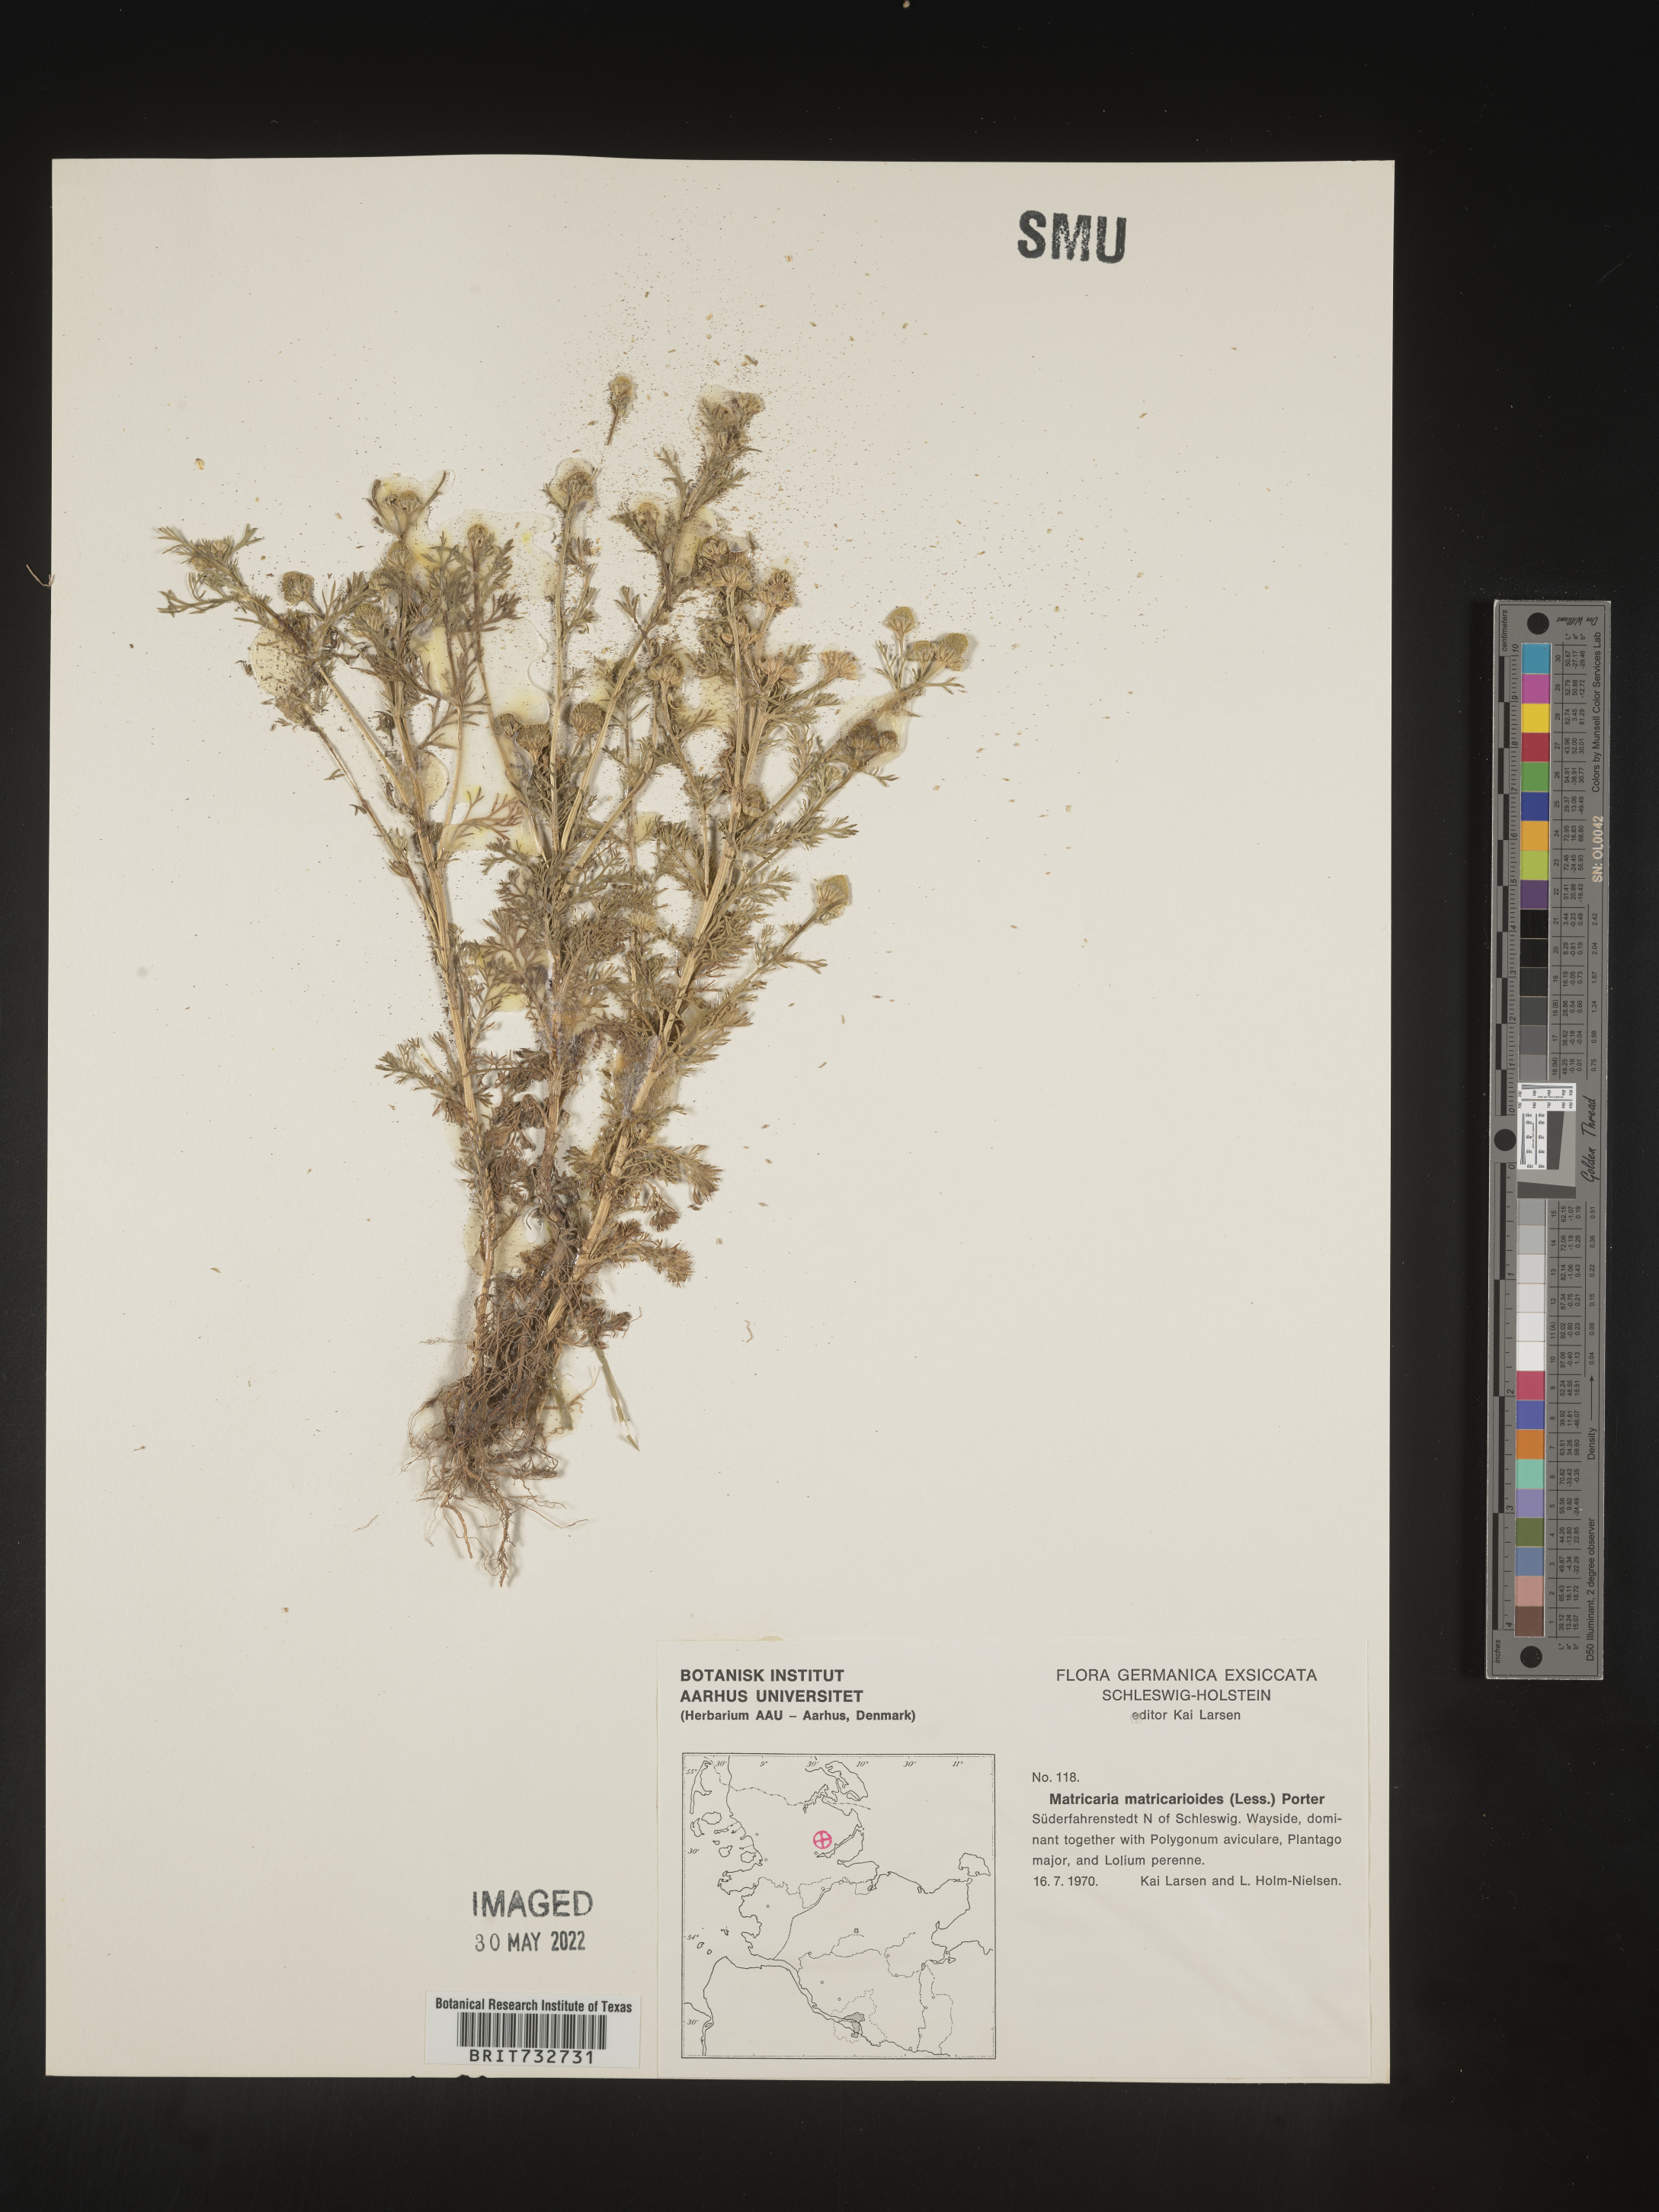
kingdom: Plantae
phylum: Tracheophyta
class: Magnoliopsida
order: Asterales
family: Asteraceae
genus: Matricaria
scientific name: Matricaria
